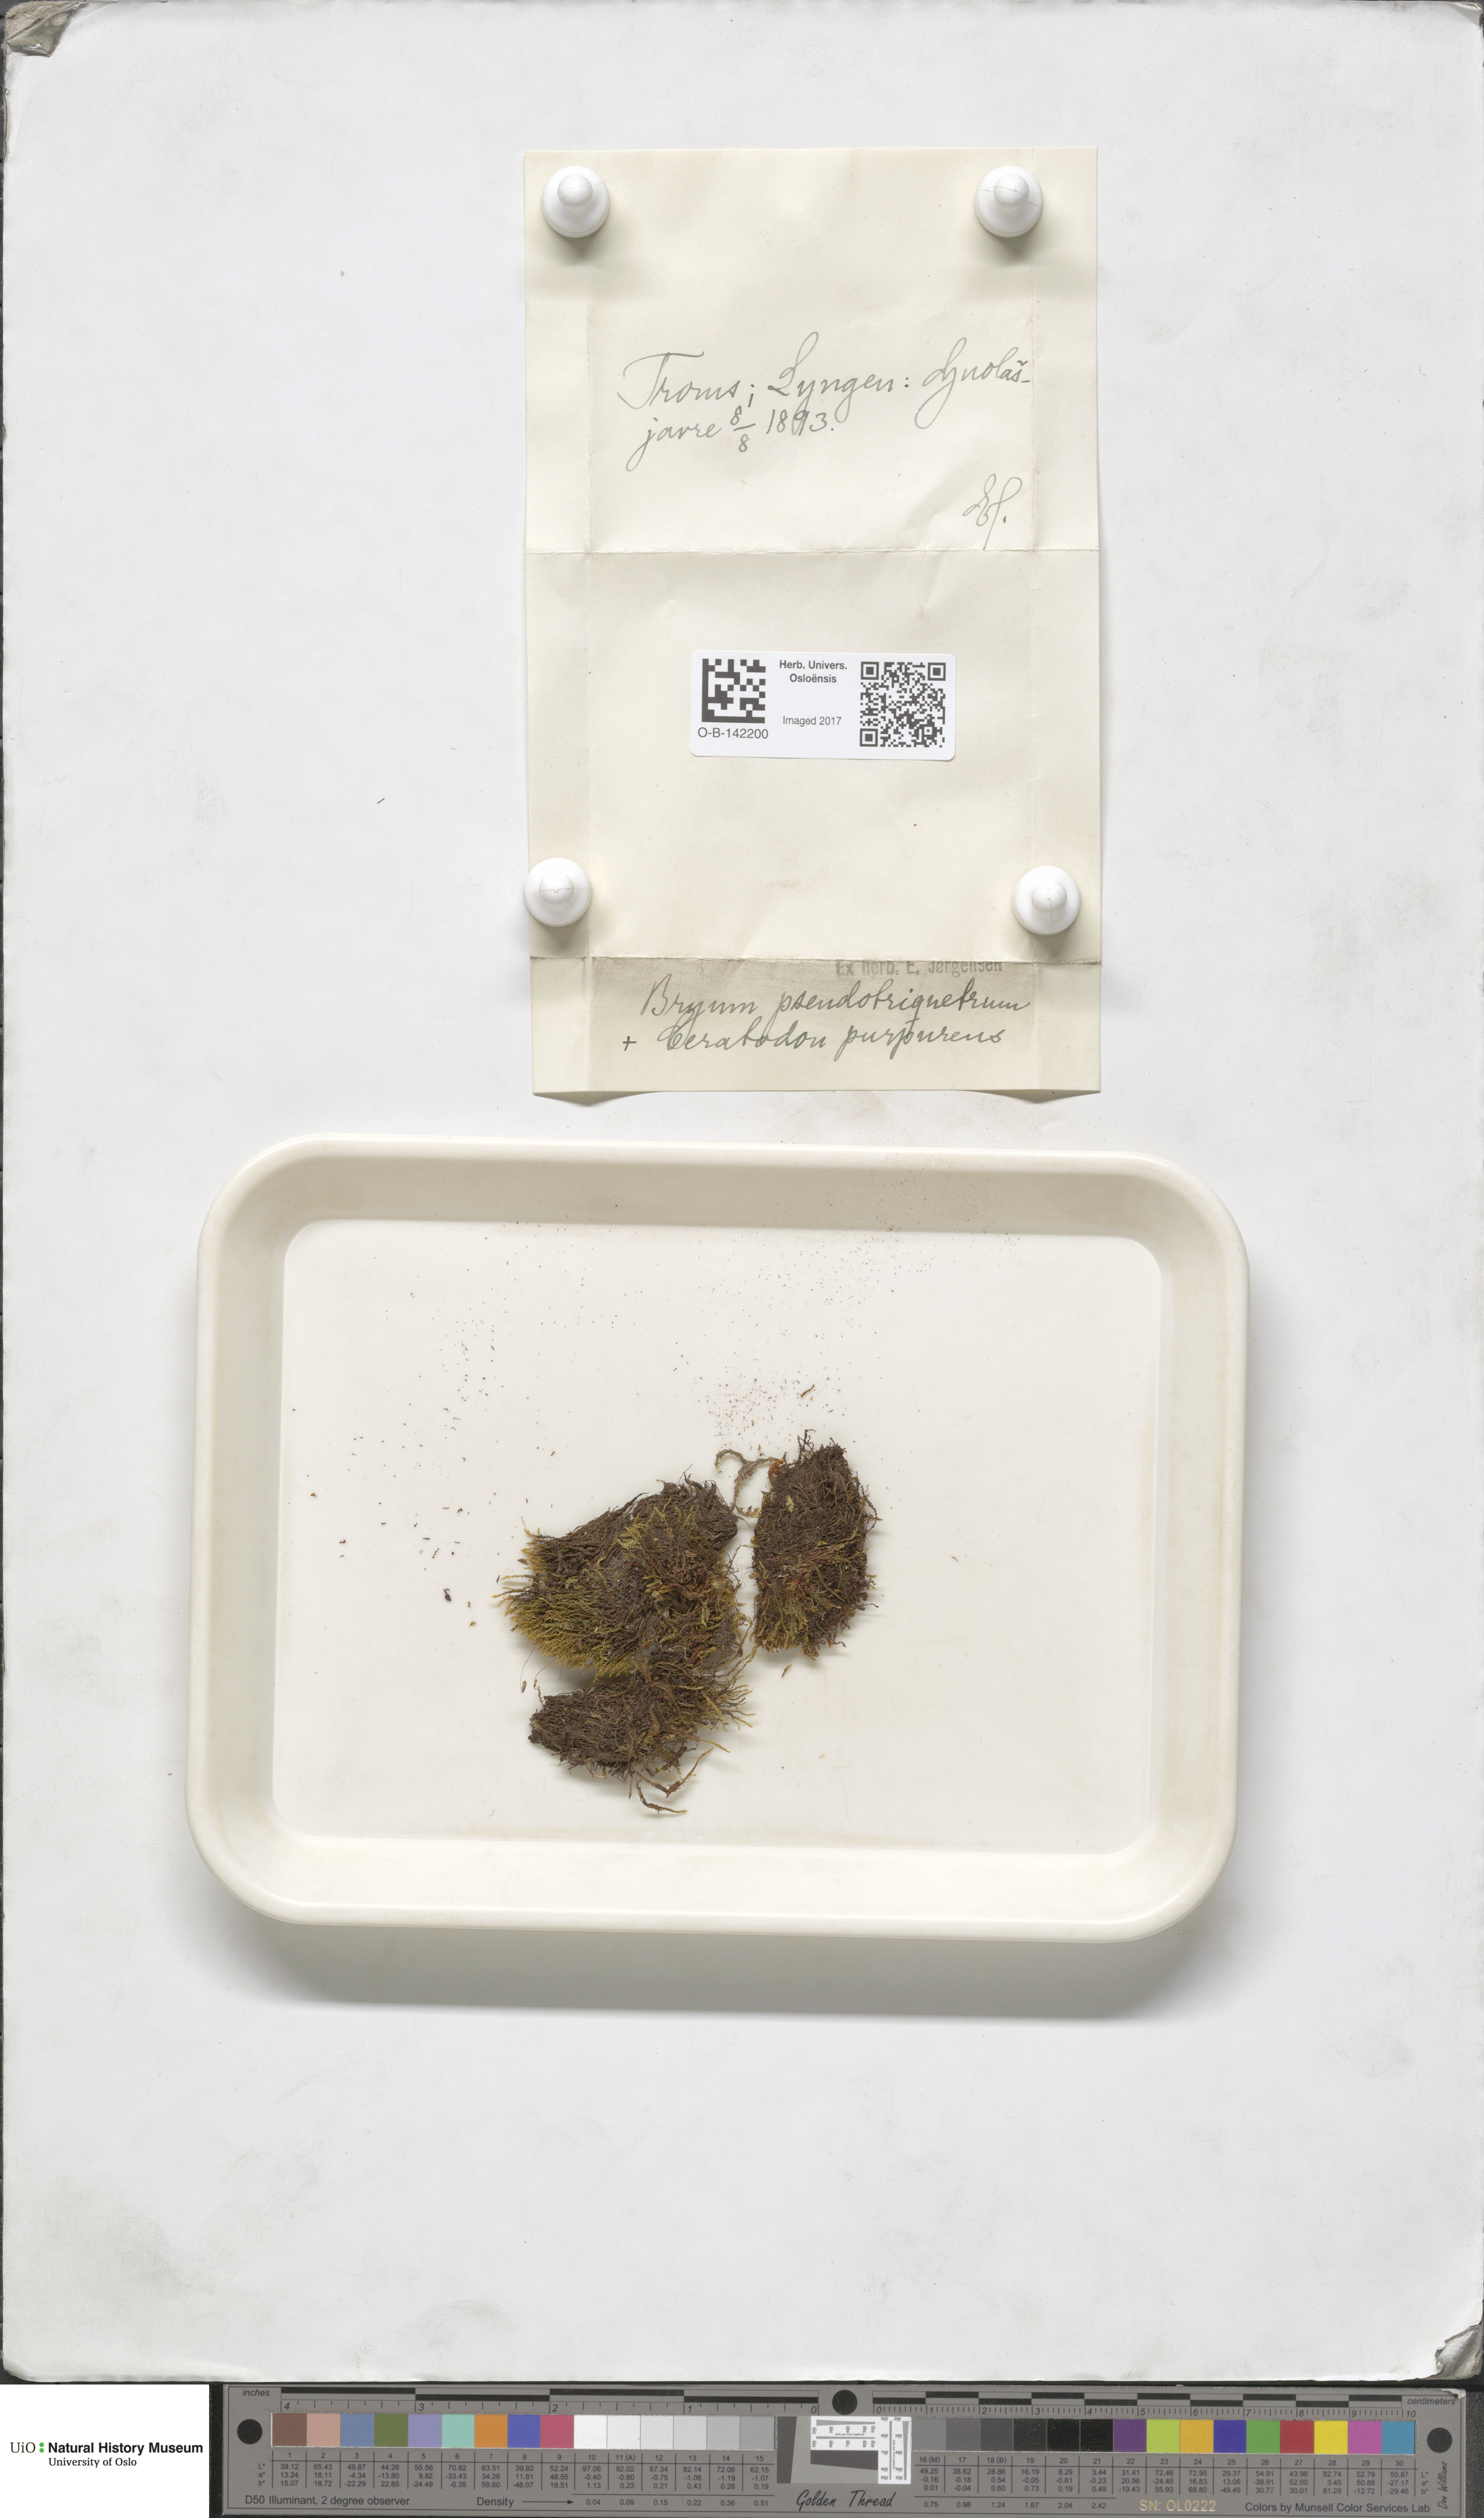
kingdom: Plantae
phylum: Bryophyta
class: Bryopsida
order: Bryales
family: Bryaceae
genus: Ptychostomum
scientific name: Ptychostomum pseudotriquetrum
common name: Long-leaved thread moss
